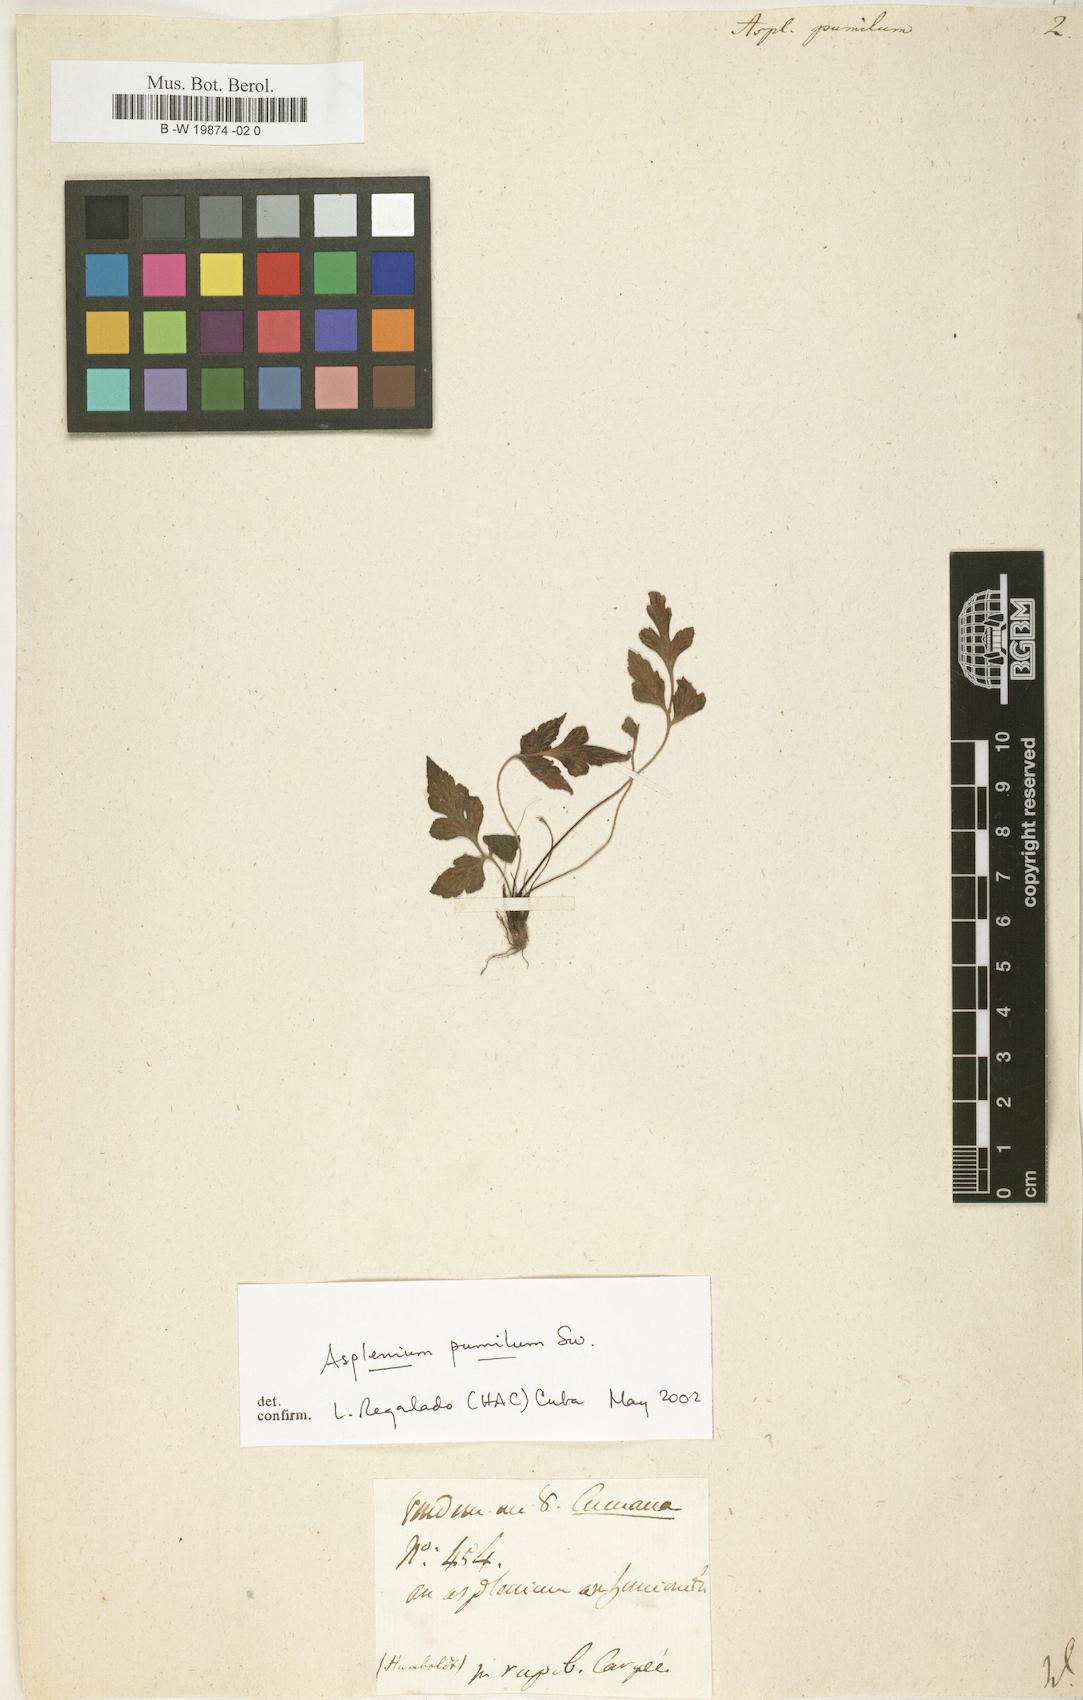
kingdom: Plantae
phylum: Tracheophyta
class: Polypodiopsida
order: Polypodiales
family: Aspleniaceae
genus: Asplenium
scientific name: Asplenium pumilum
